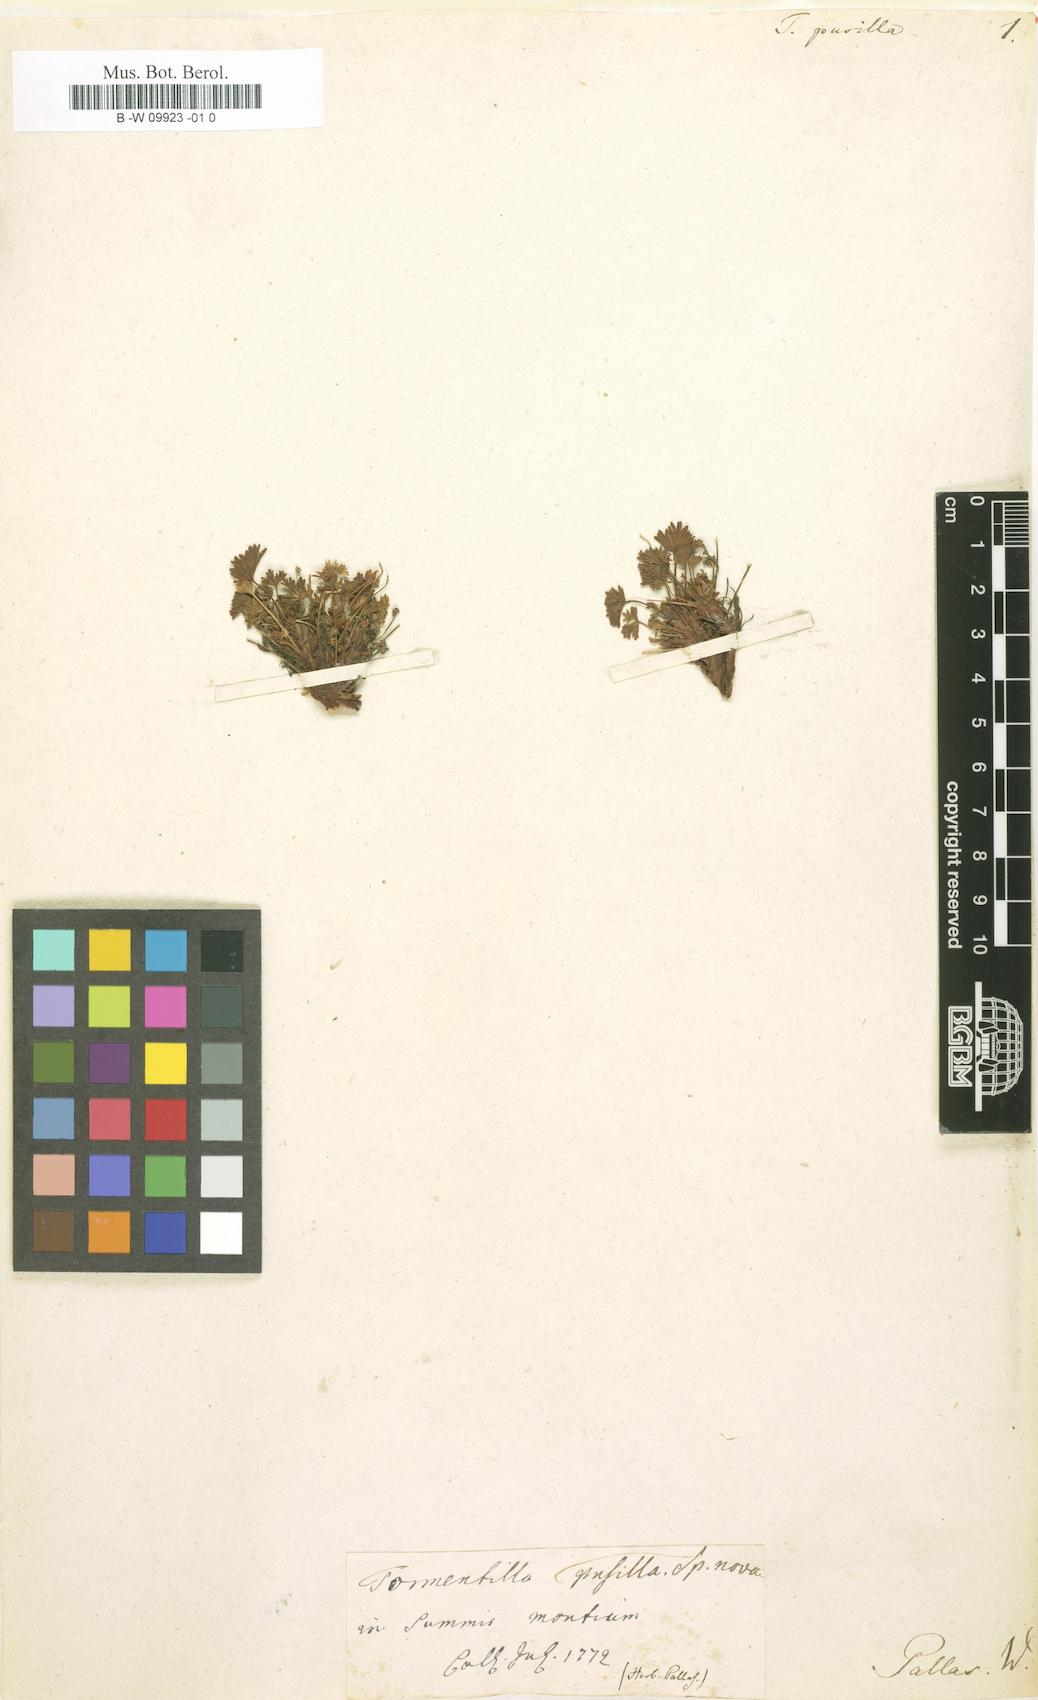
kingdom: Plantae
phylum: Tracheophyta
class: Magnoliopsida
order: Rosales
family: Rosaceae
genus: Potentilla
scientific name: Potentilla Tormentilla pusilla
